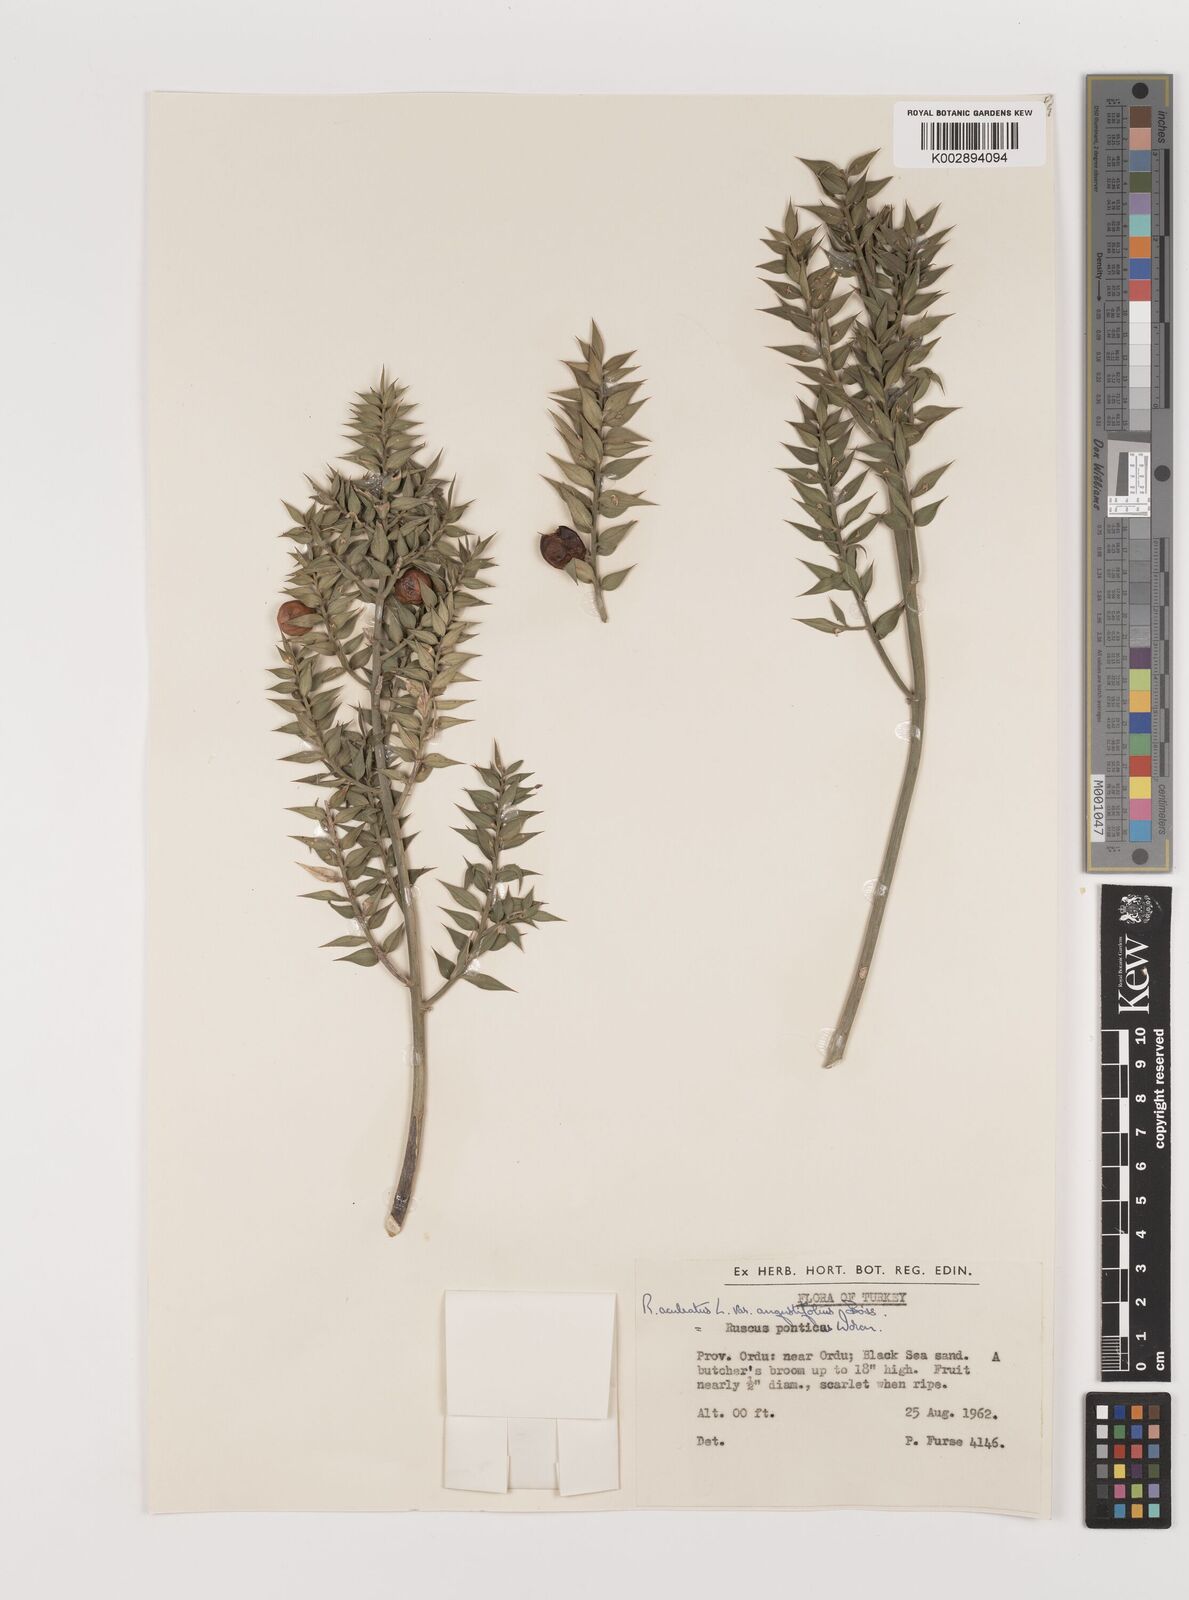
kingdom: Plantae
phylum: Tracheophyta
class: Liliopsida
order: Asparagales
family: Asparagaceae
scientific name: Asparagaceae
